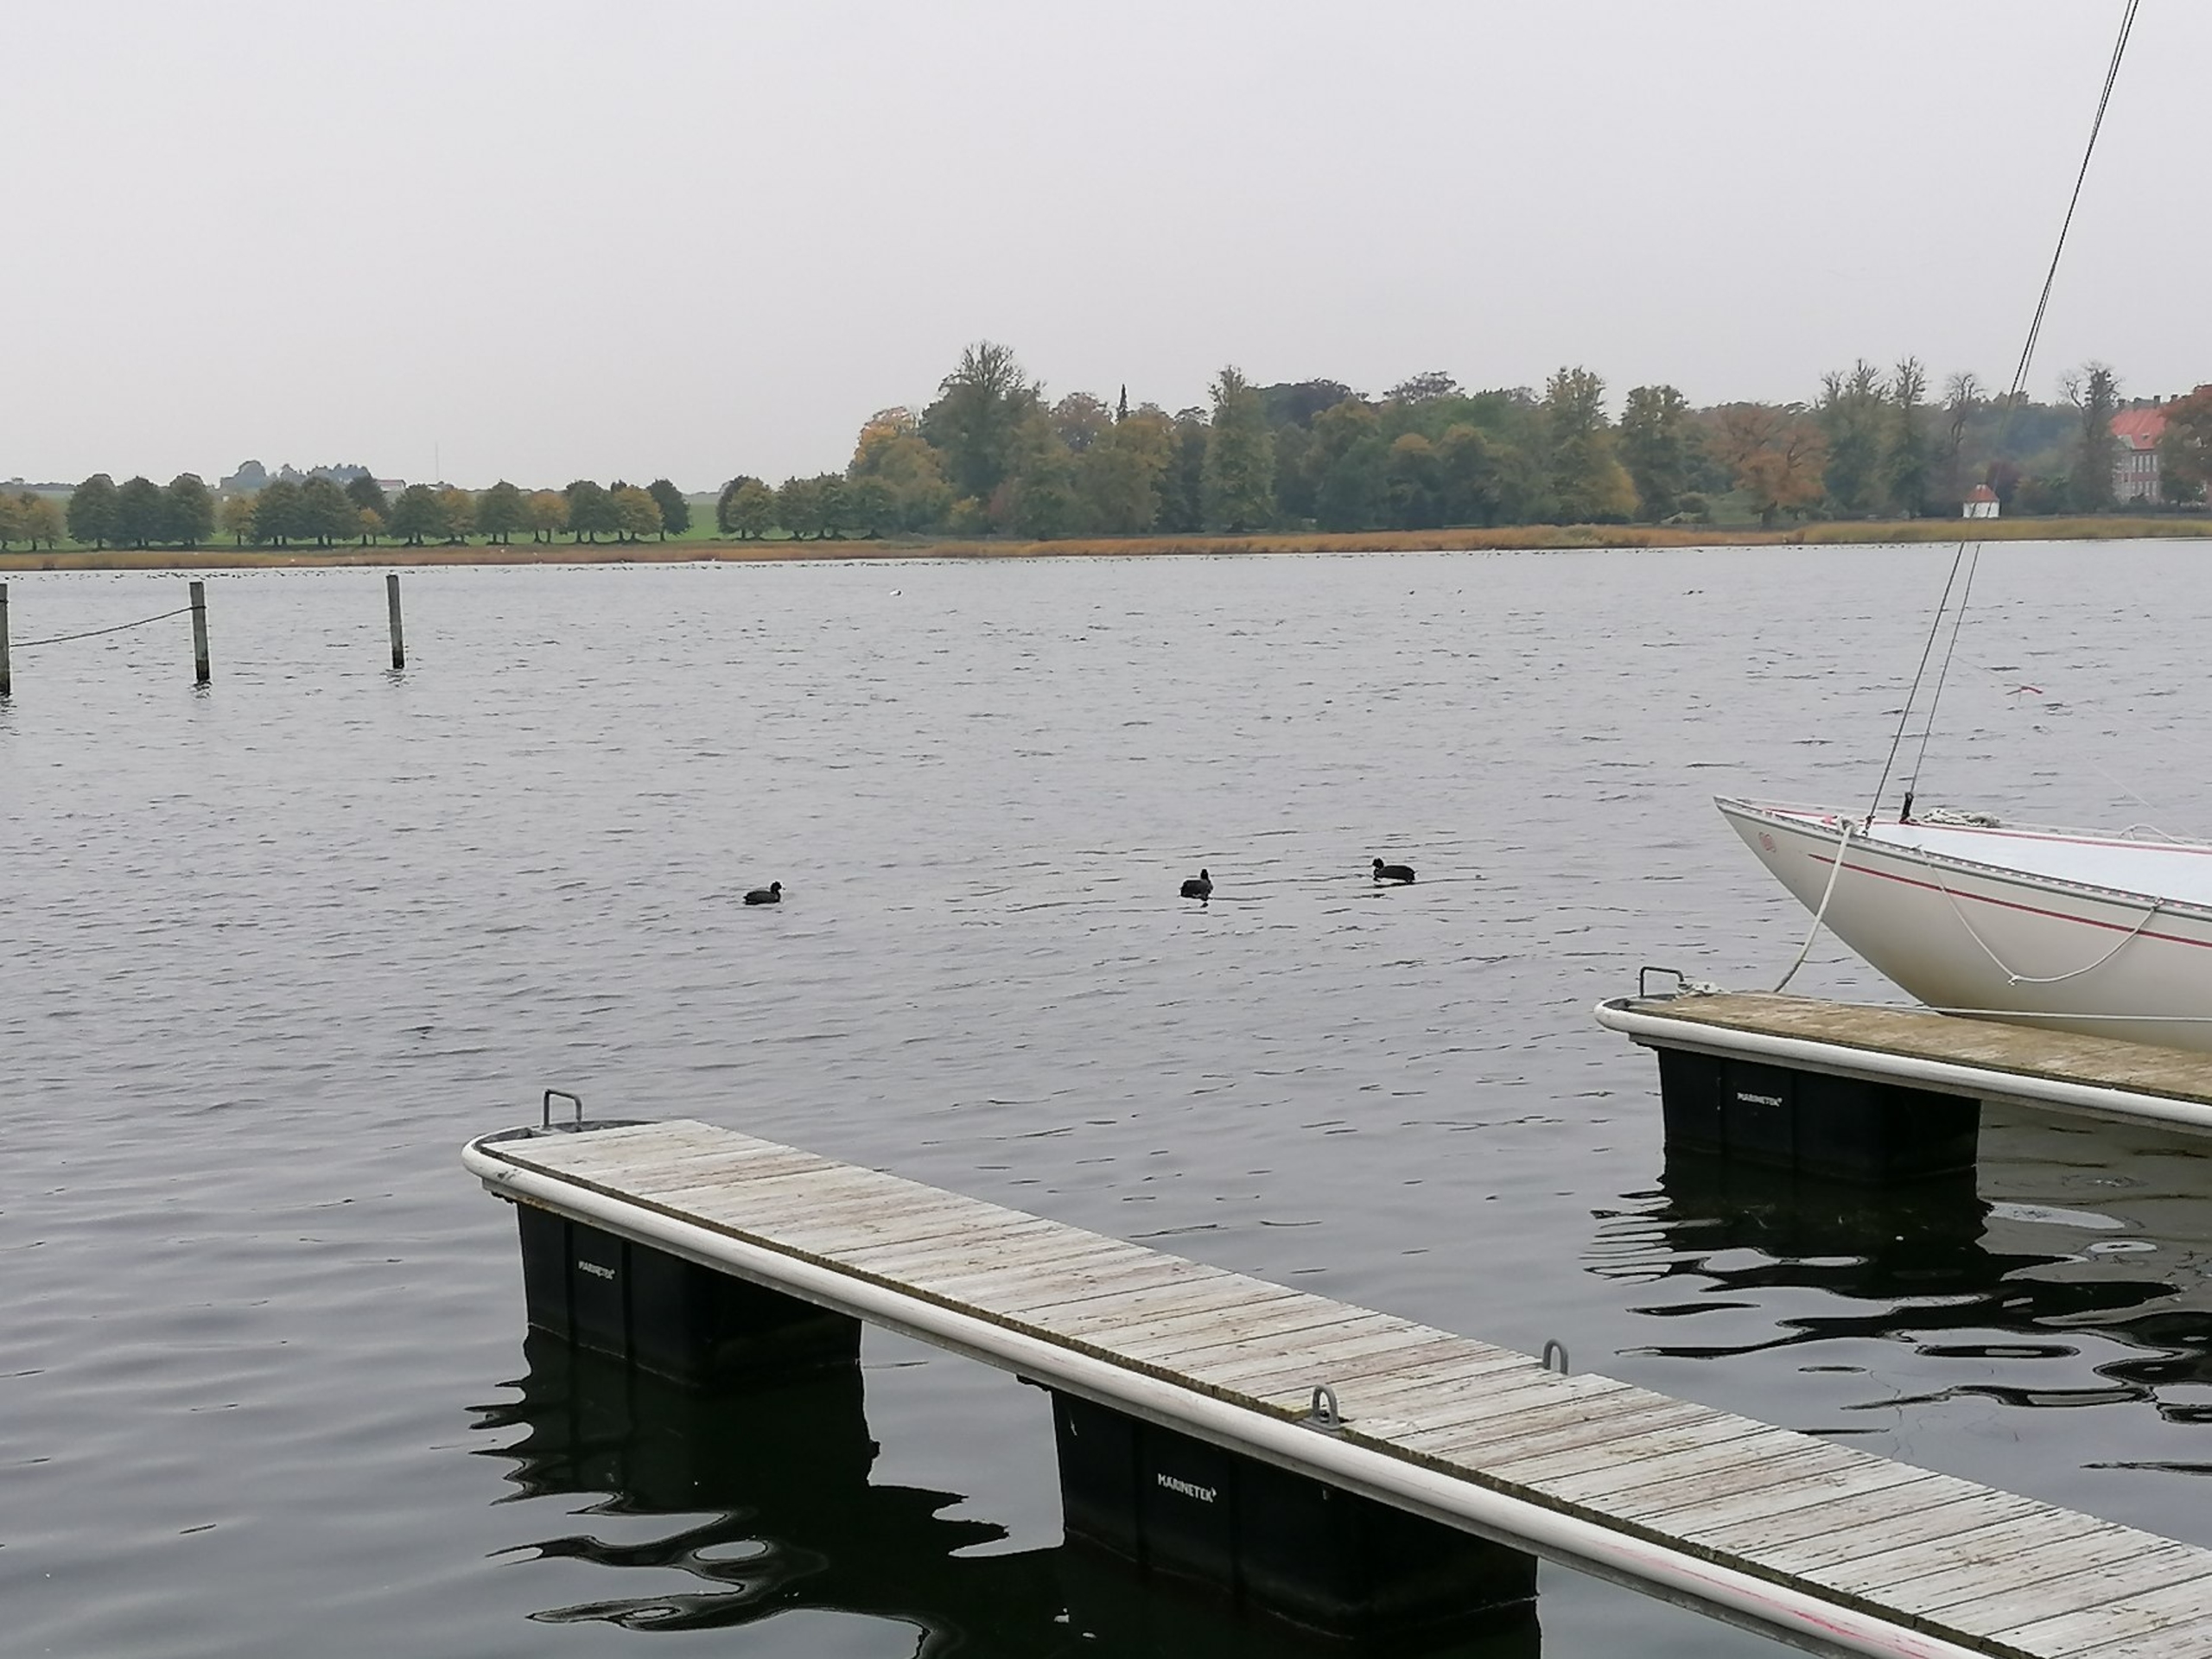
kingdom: Animalia
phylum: Chordata
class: Aves
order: Gruiformes
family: Rallidae
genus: Fulica
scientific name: Fulica atra
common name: Blishøne
